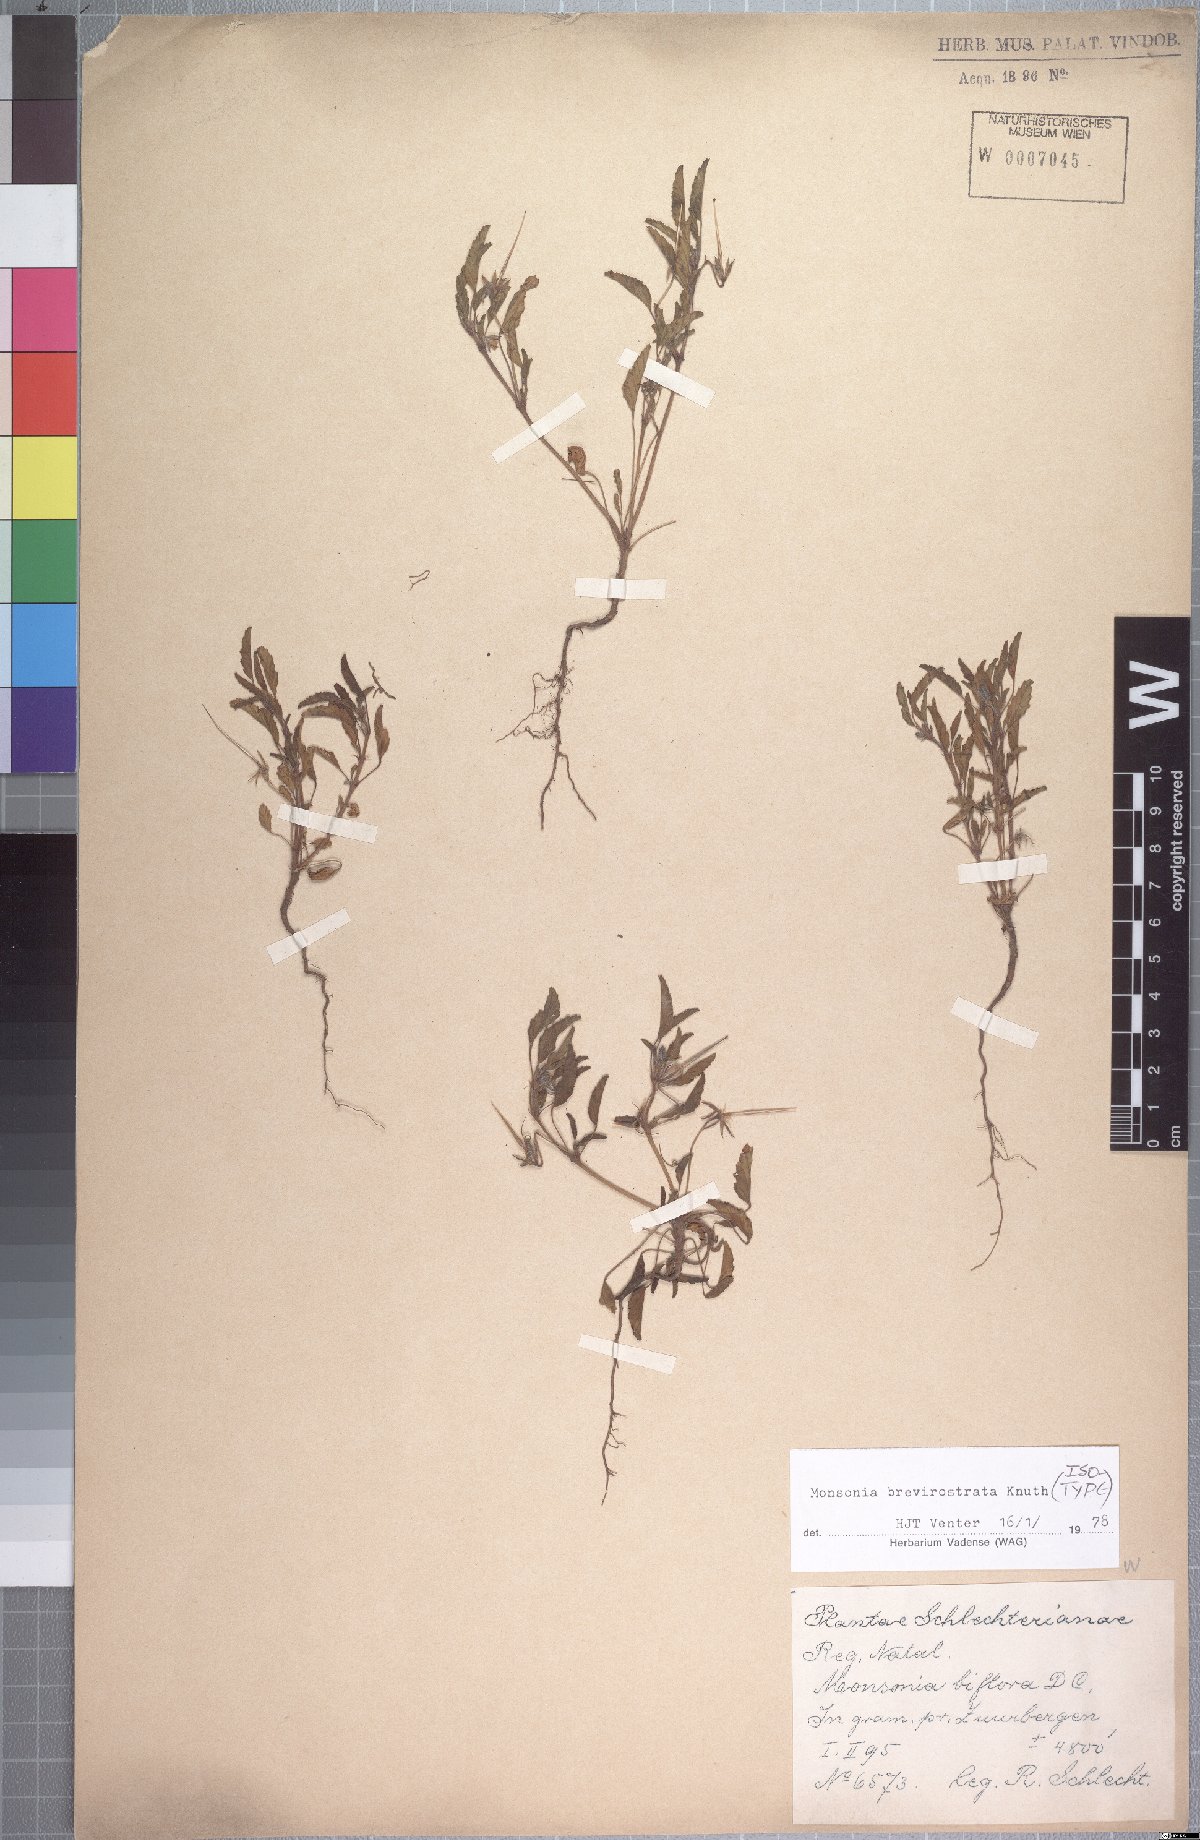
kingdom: Plantae
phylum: Tracheophyta
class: Magnoliopsida
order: Geraniales
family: Geraniaceae
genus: Monsonia
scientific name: Monsonia brevirostrata
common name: Short-fruited dysentery-herb
